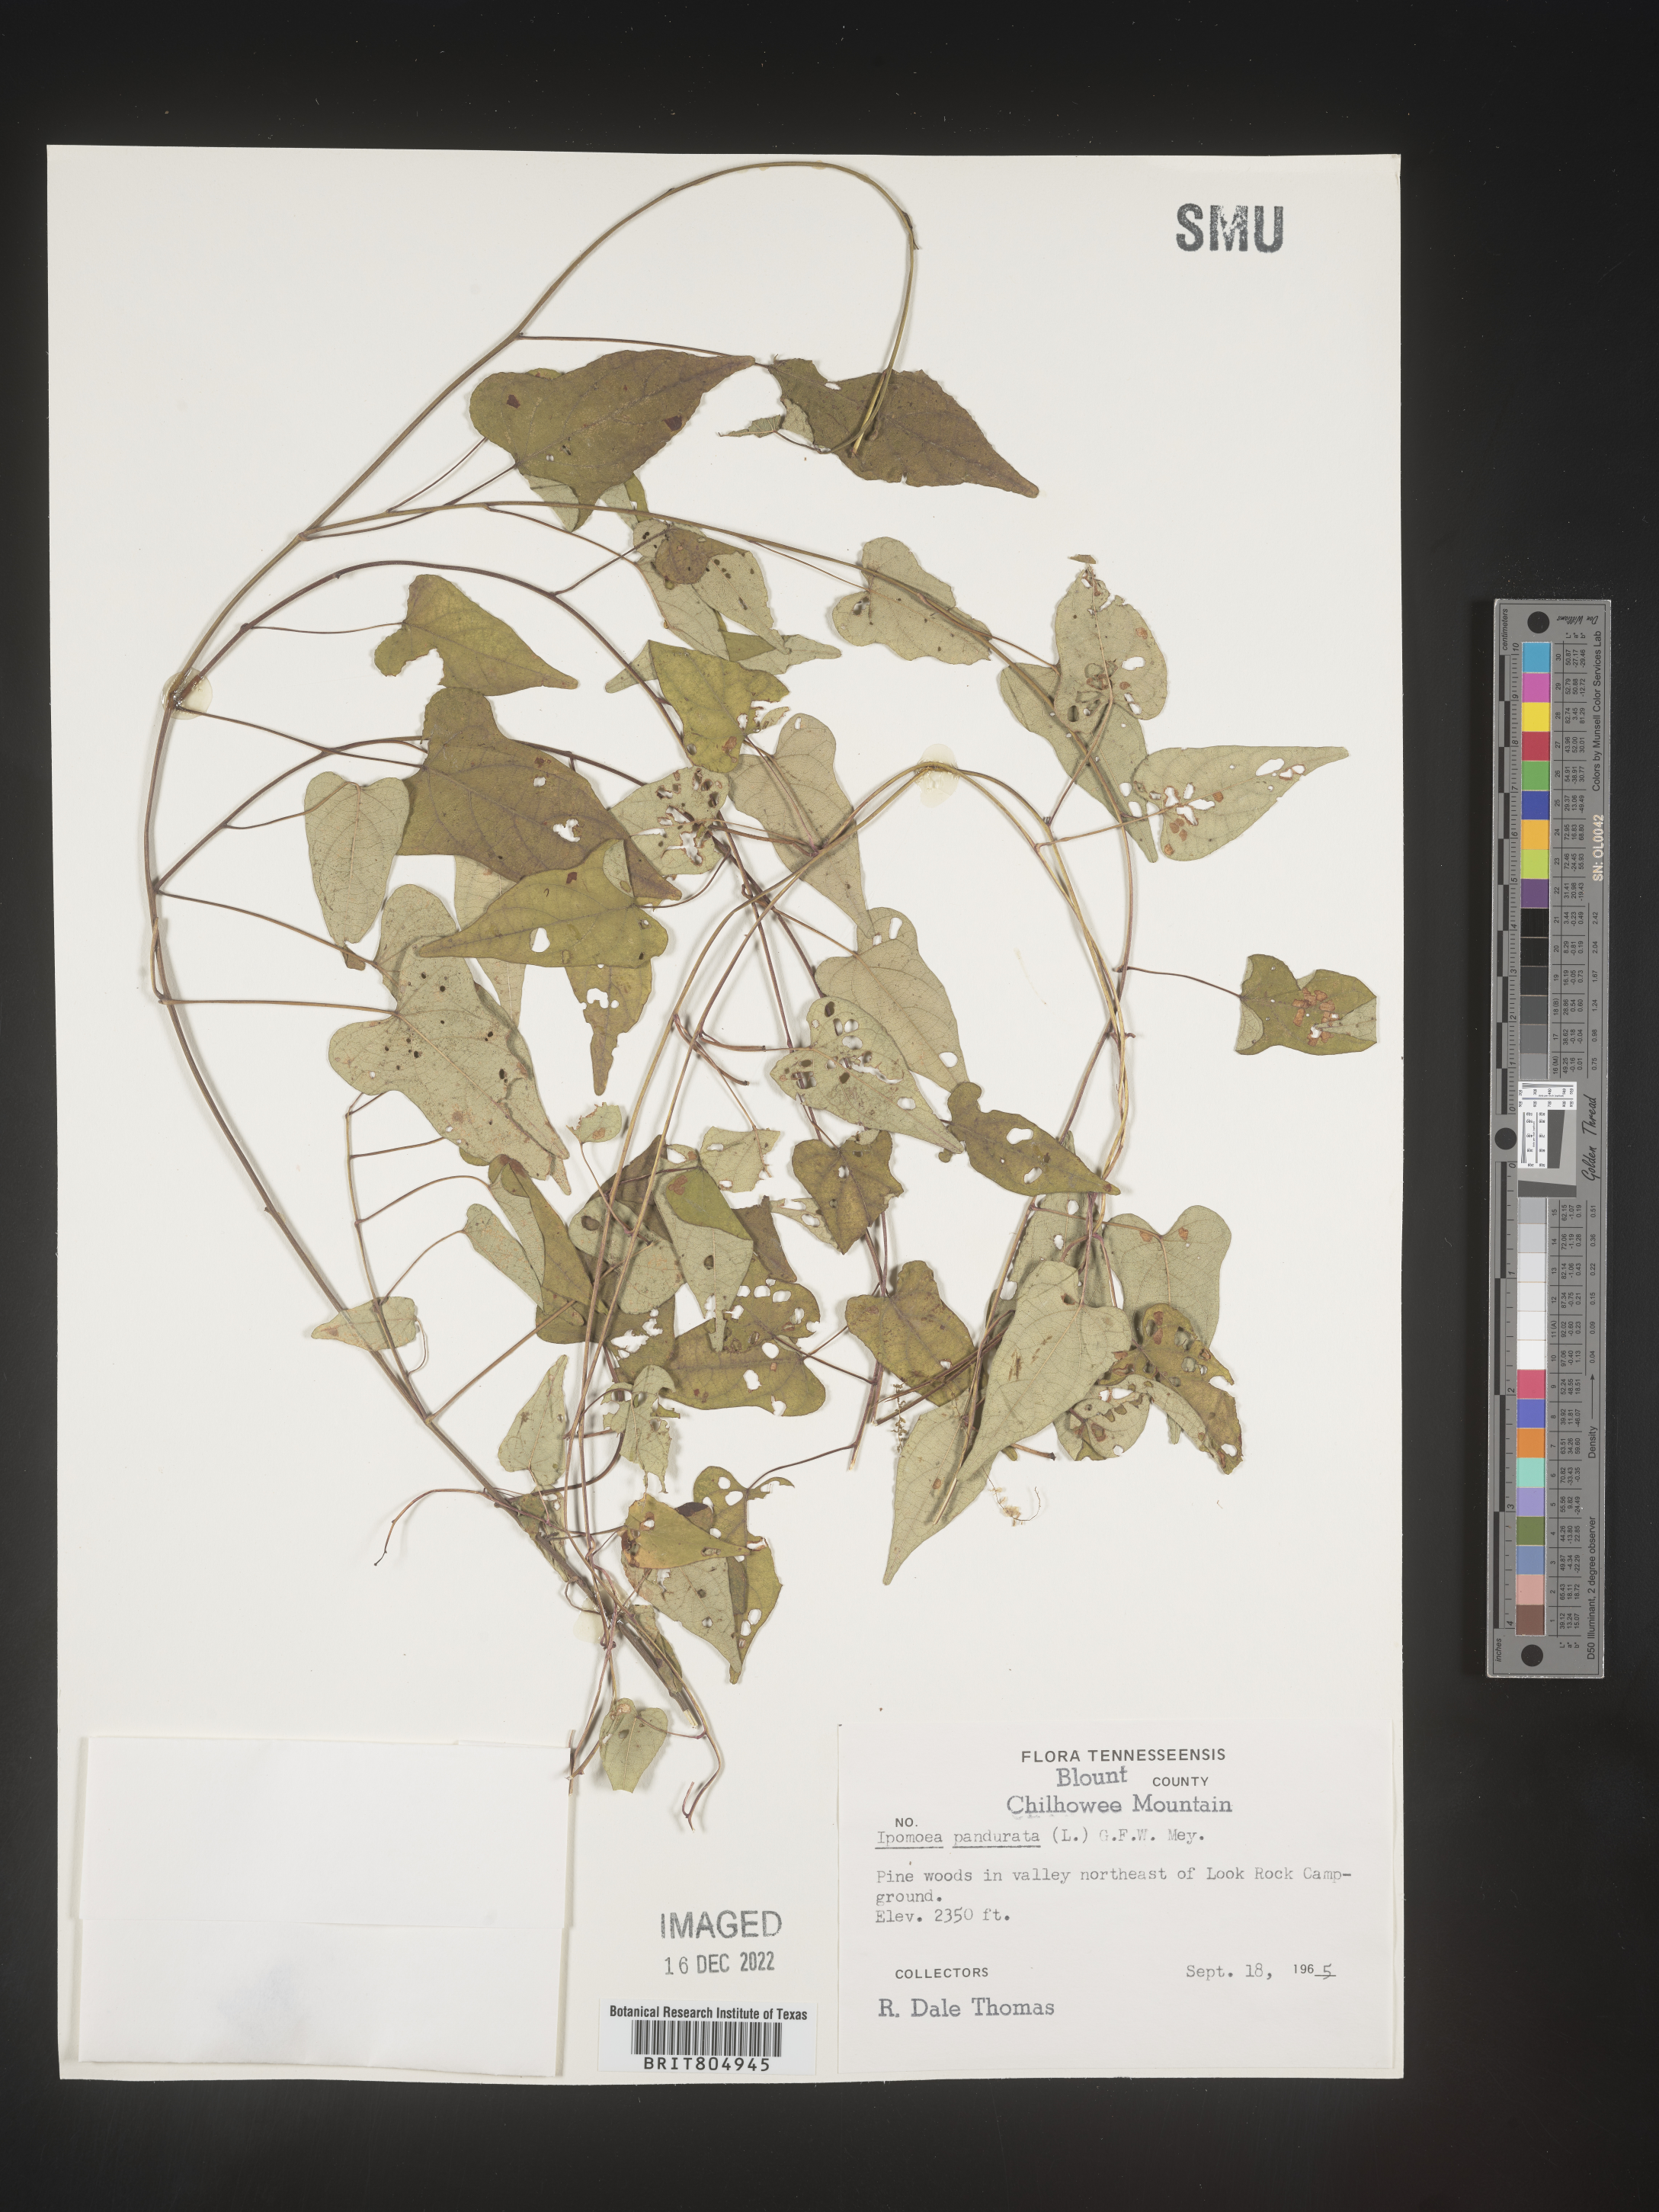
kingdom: Plantae
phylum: Tracheophyta
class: Magnoliopsida
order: Solanales
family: Convolvulaceae
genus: Ipomoea
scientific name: Ipomoea pandurata
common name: Man-of-the-earth
